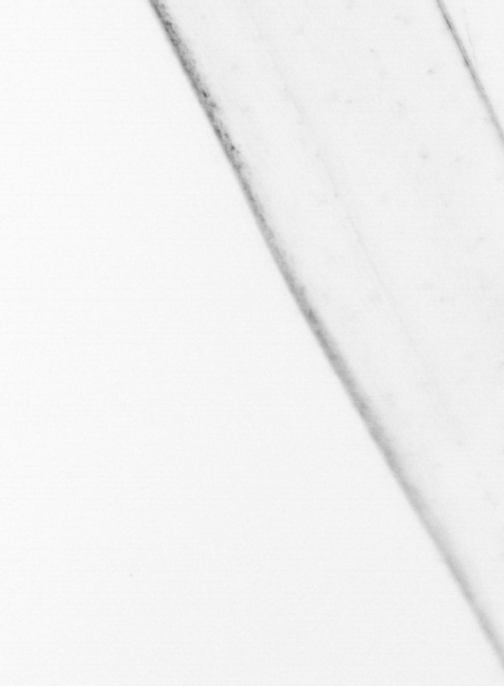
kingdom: Animalia
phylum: Chaetognatha
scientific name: Chaetognatha
